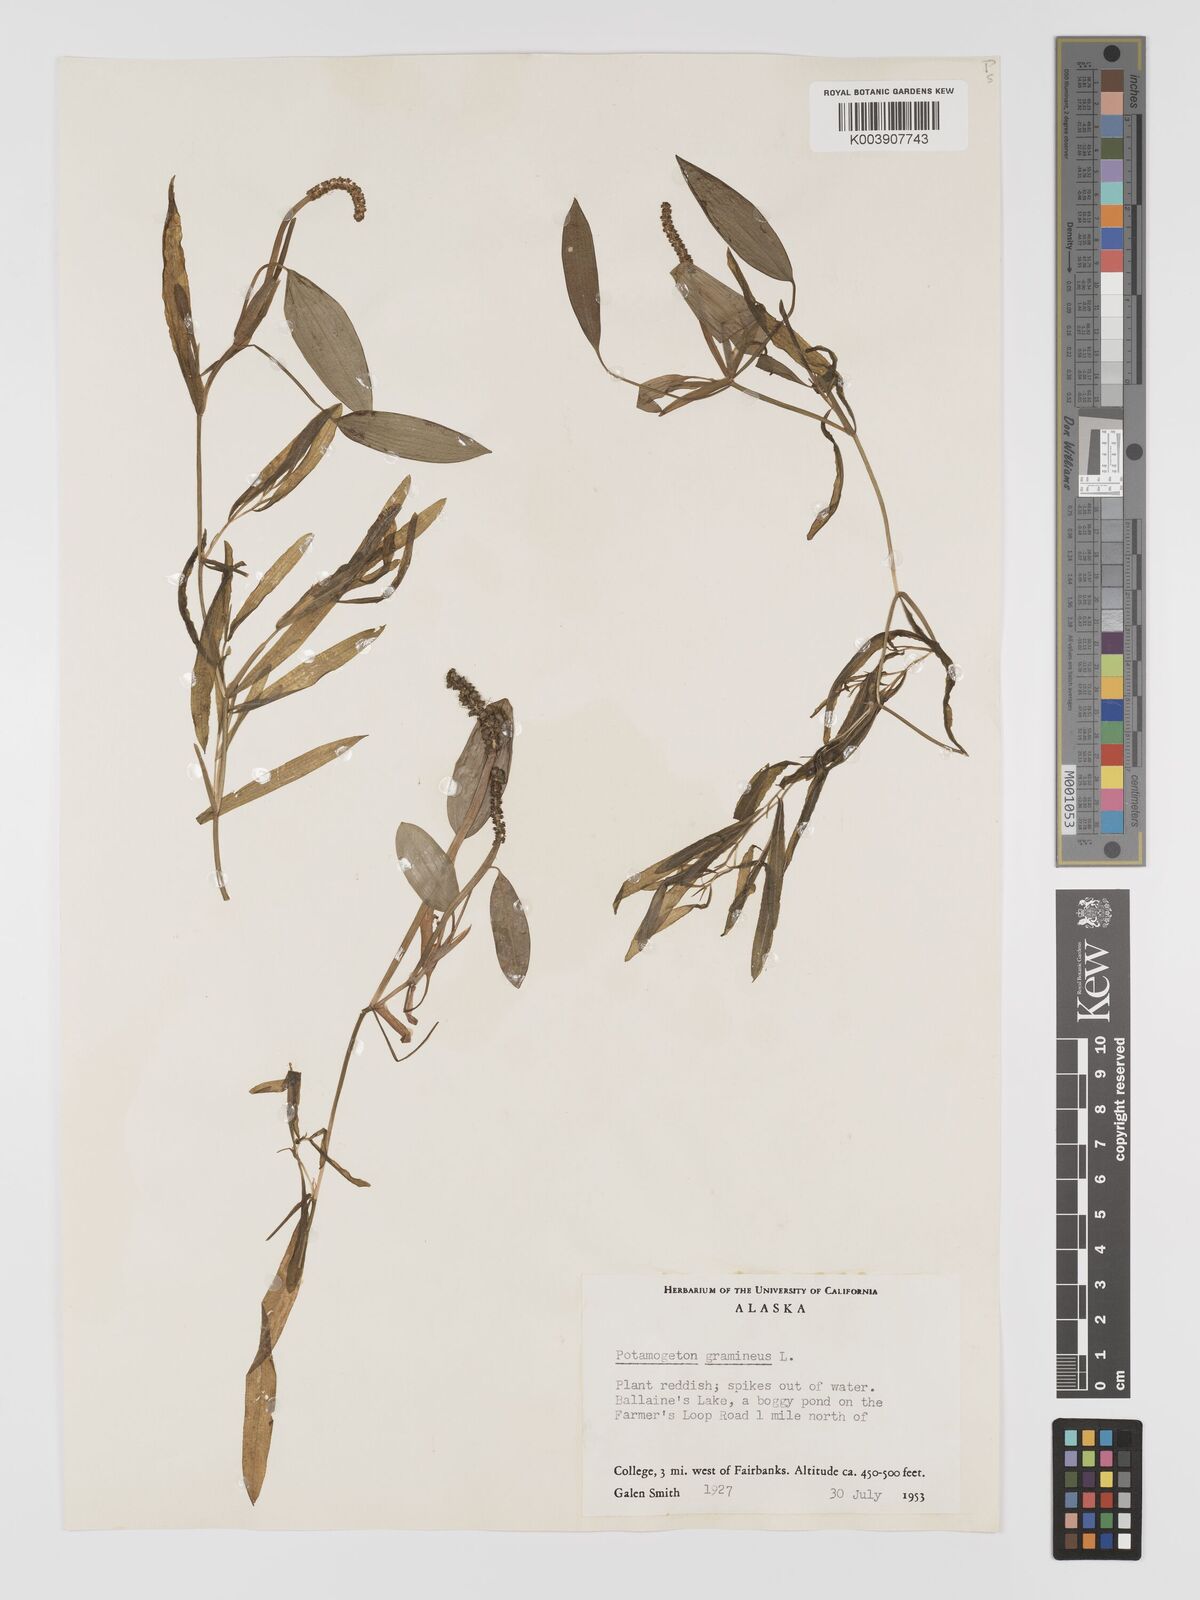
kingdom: Plantae
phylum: Tracheophyta
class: Liliopsida
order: Alismatales
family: Potamogetonaceae
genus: Potamogeton
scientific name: Potamogeton gramineus
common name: Various-leaved pondweed
